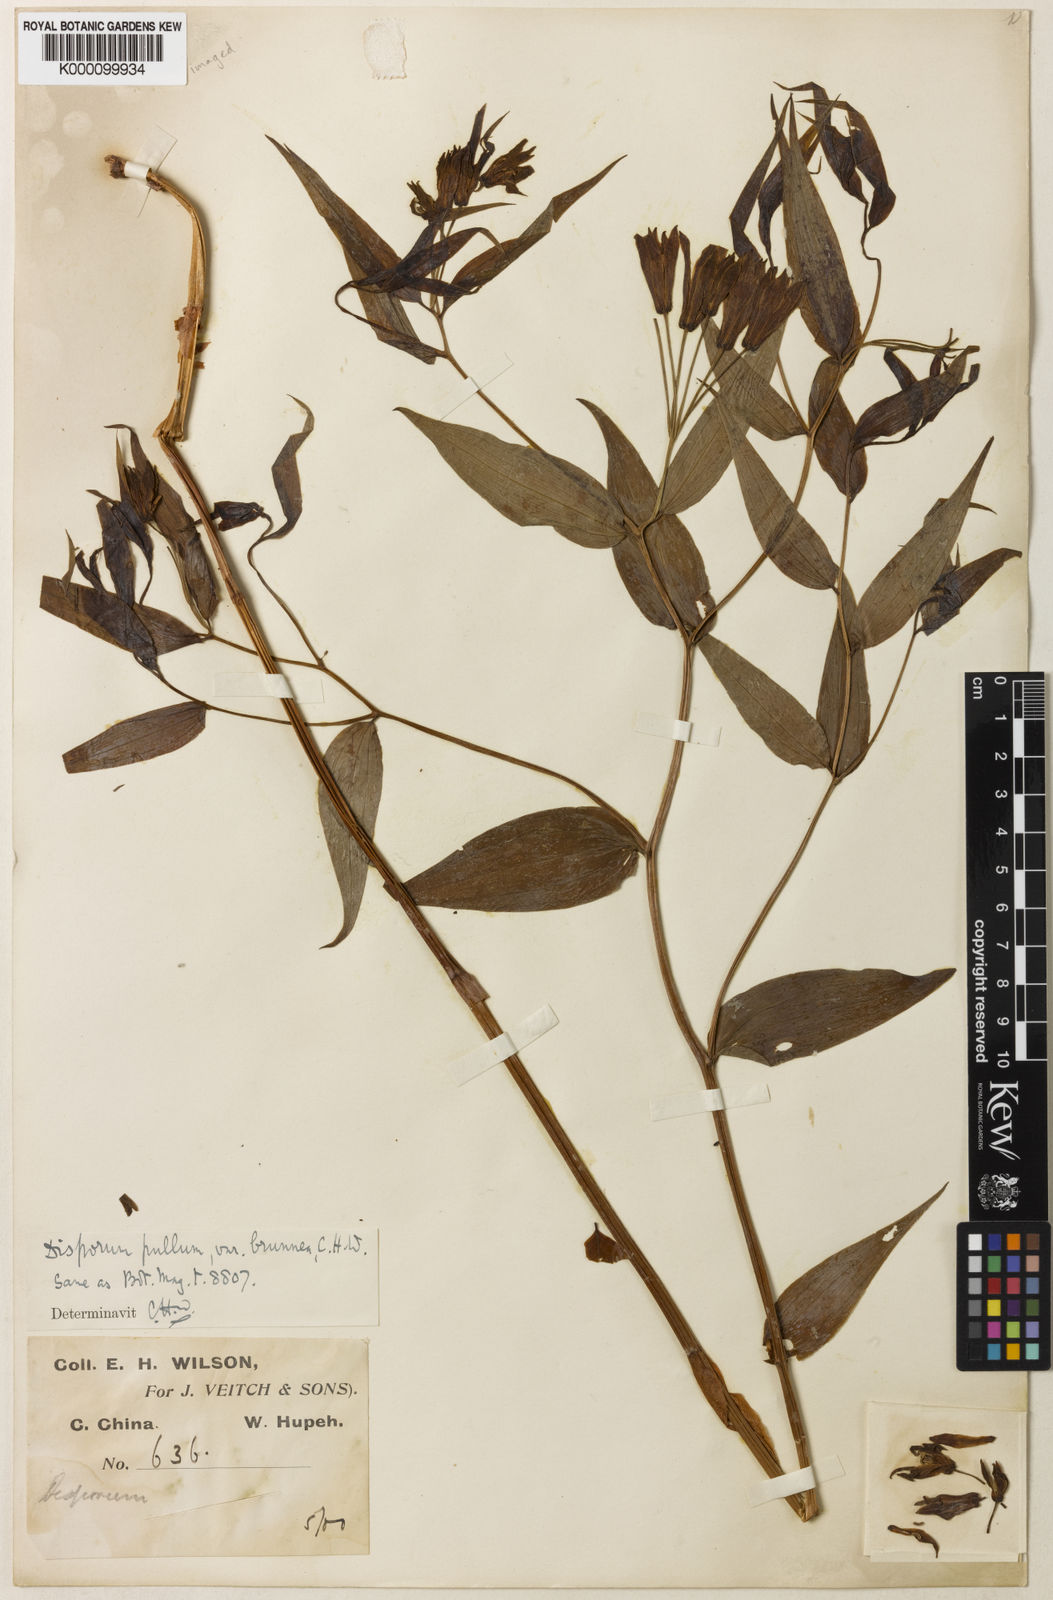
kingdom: Plantae
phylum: Tracheophyta
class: Liliopsida
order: Liliales
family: Colchicaceae
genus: Disporum
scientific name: Disporum cantoniense
